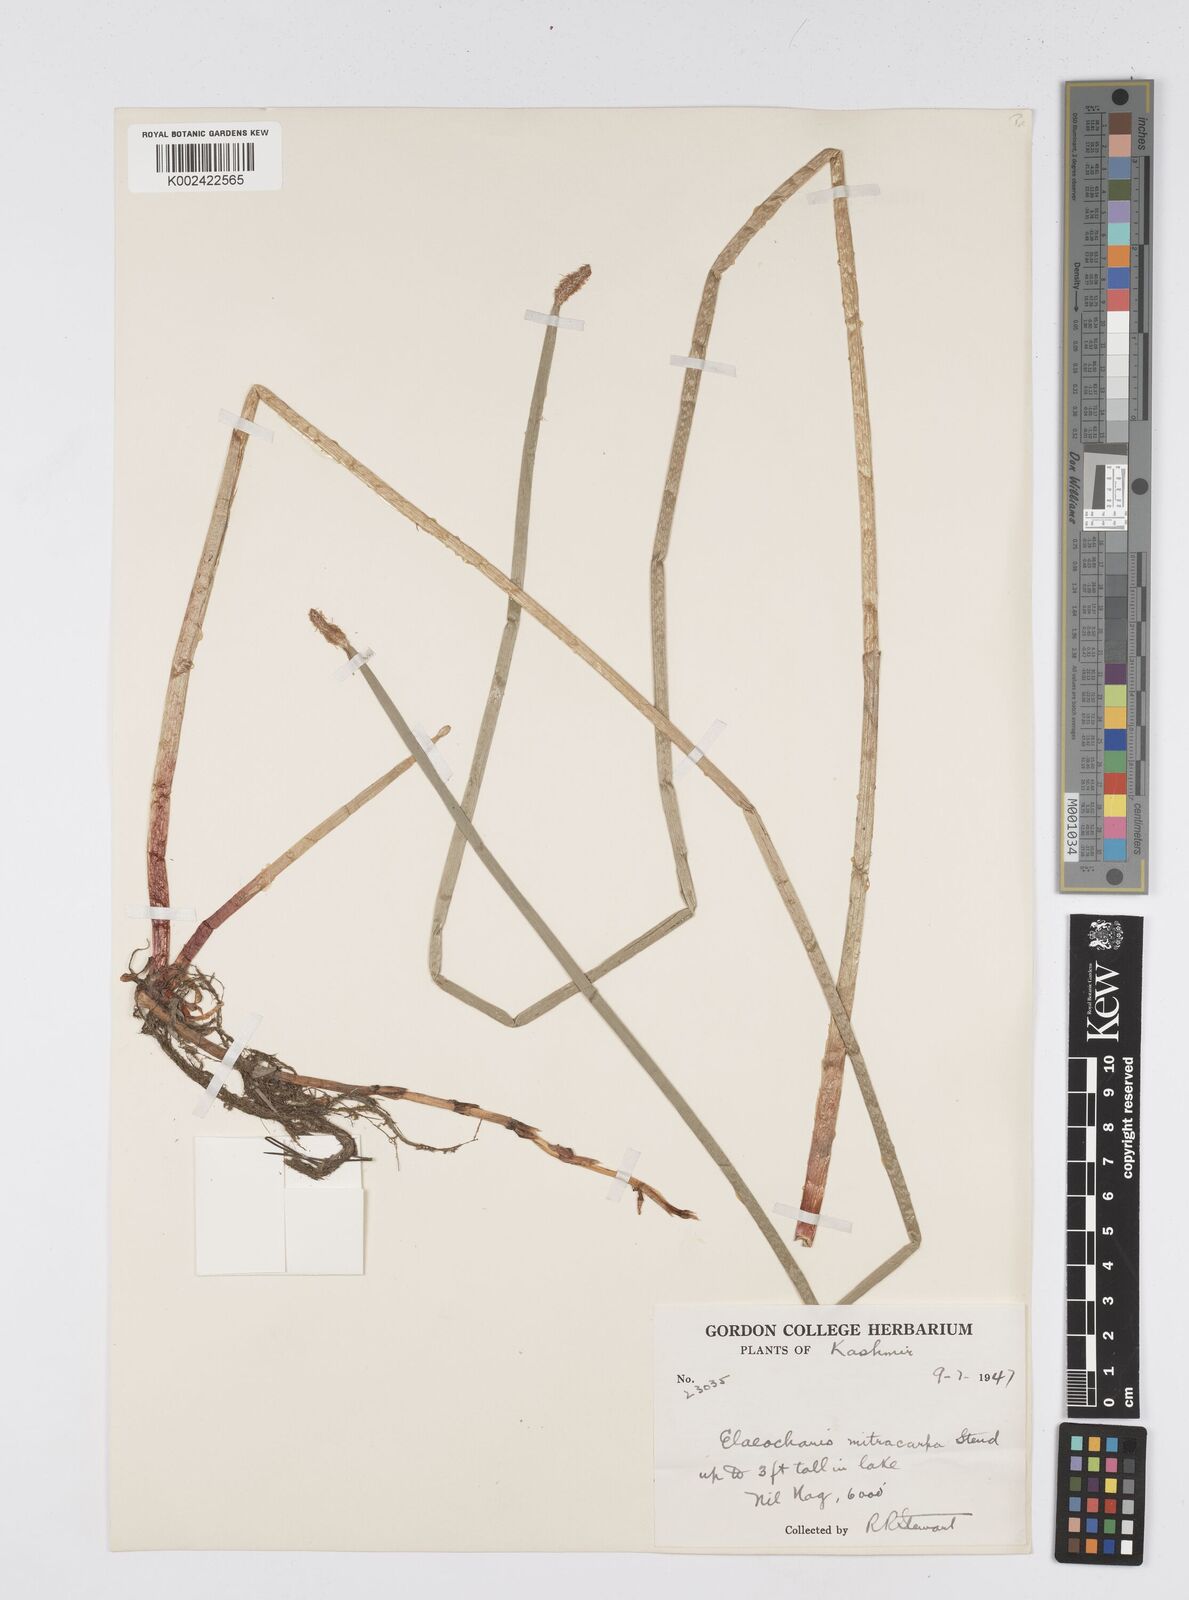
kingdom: Plantae
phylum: Tracheophyta
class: Liliopsida
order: Poales
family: Cyperaceae
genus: Eleocharis
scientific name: Eleocharis mitracarpa
